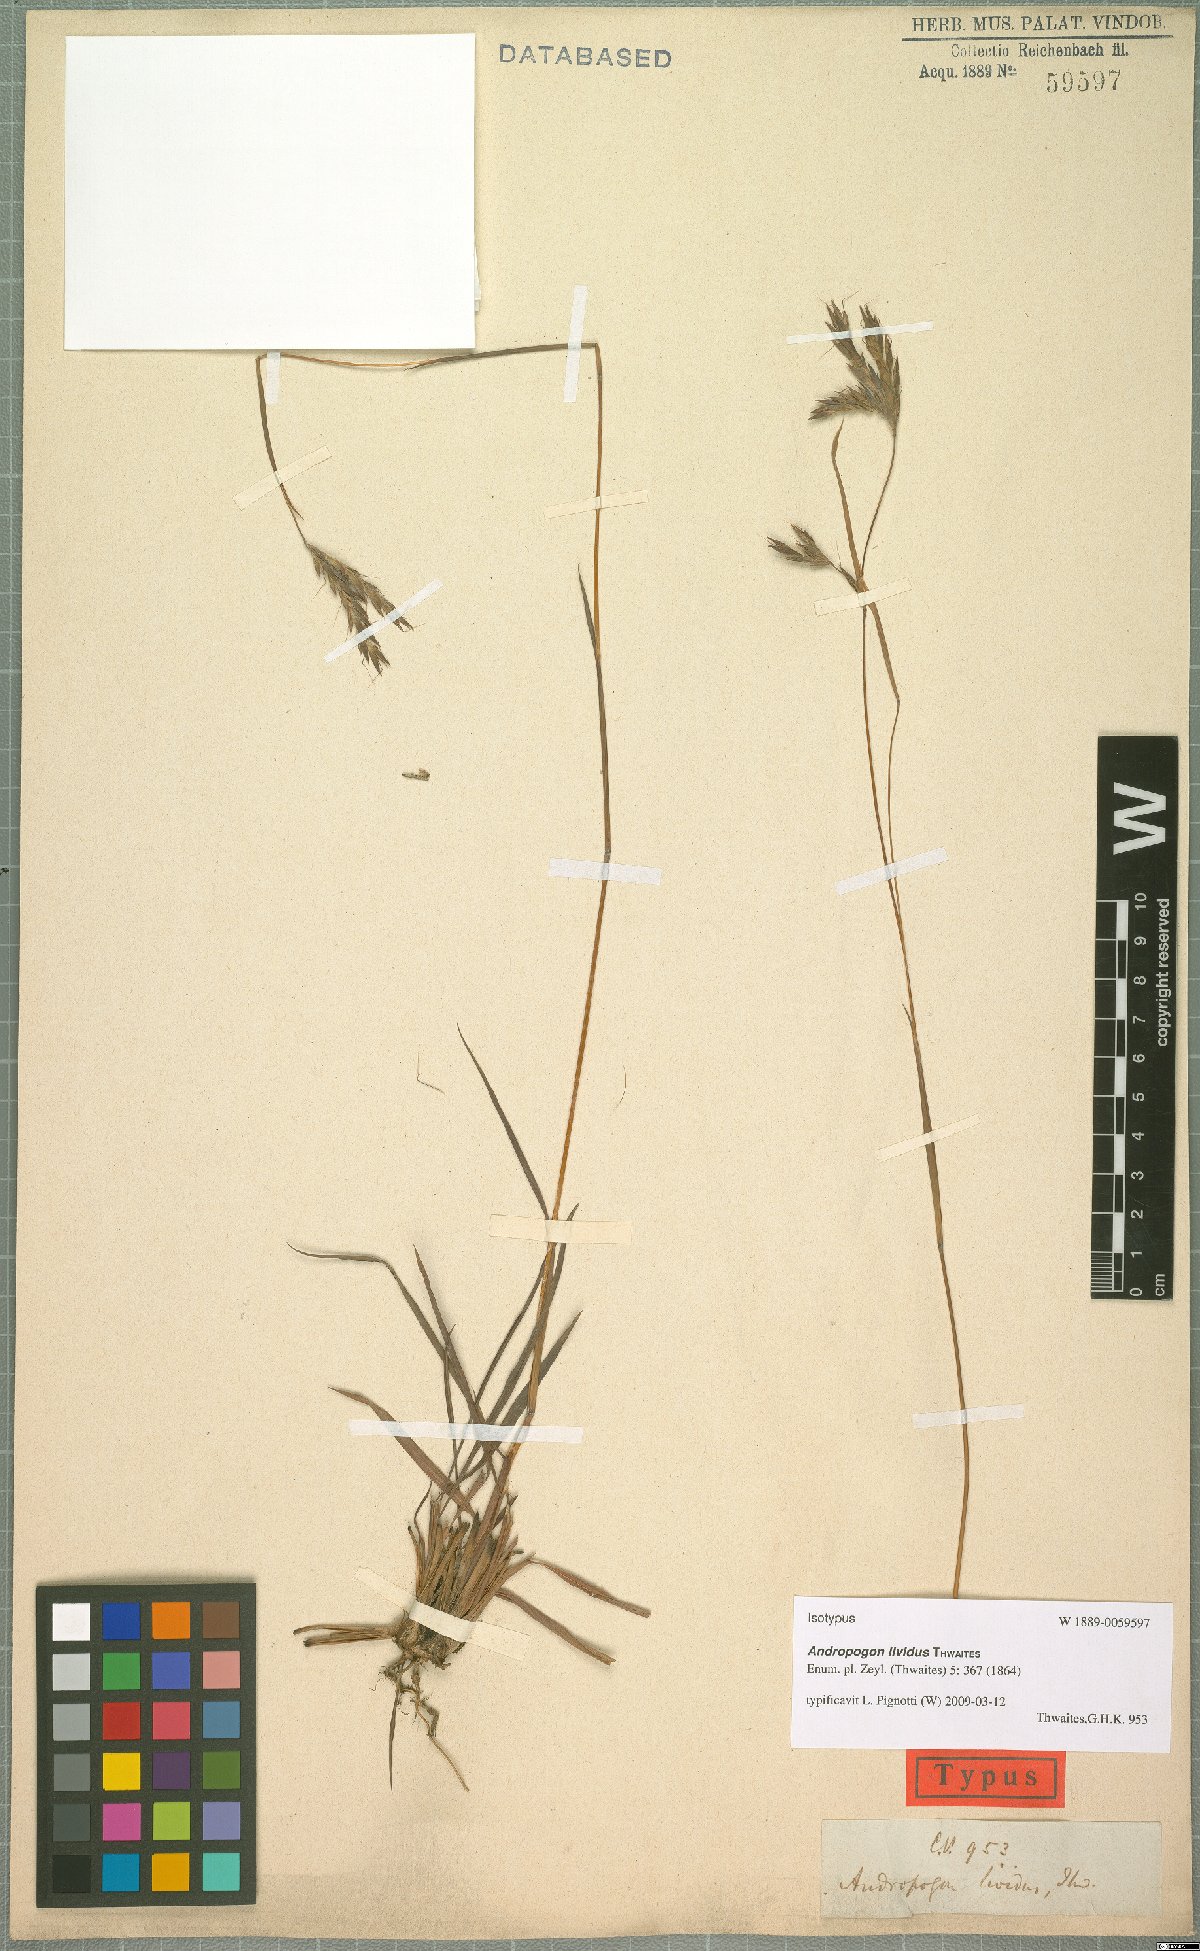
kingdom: Plantae
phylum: Tracheophyta
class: Liliopsida
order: Poales
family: Poaceae
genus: Andropogon
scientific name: Andropogon lividus
